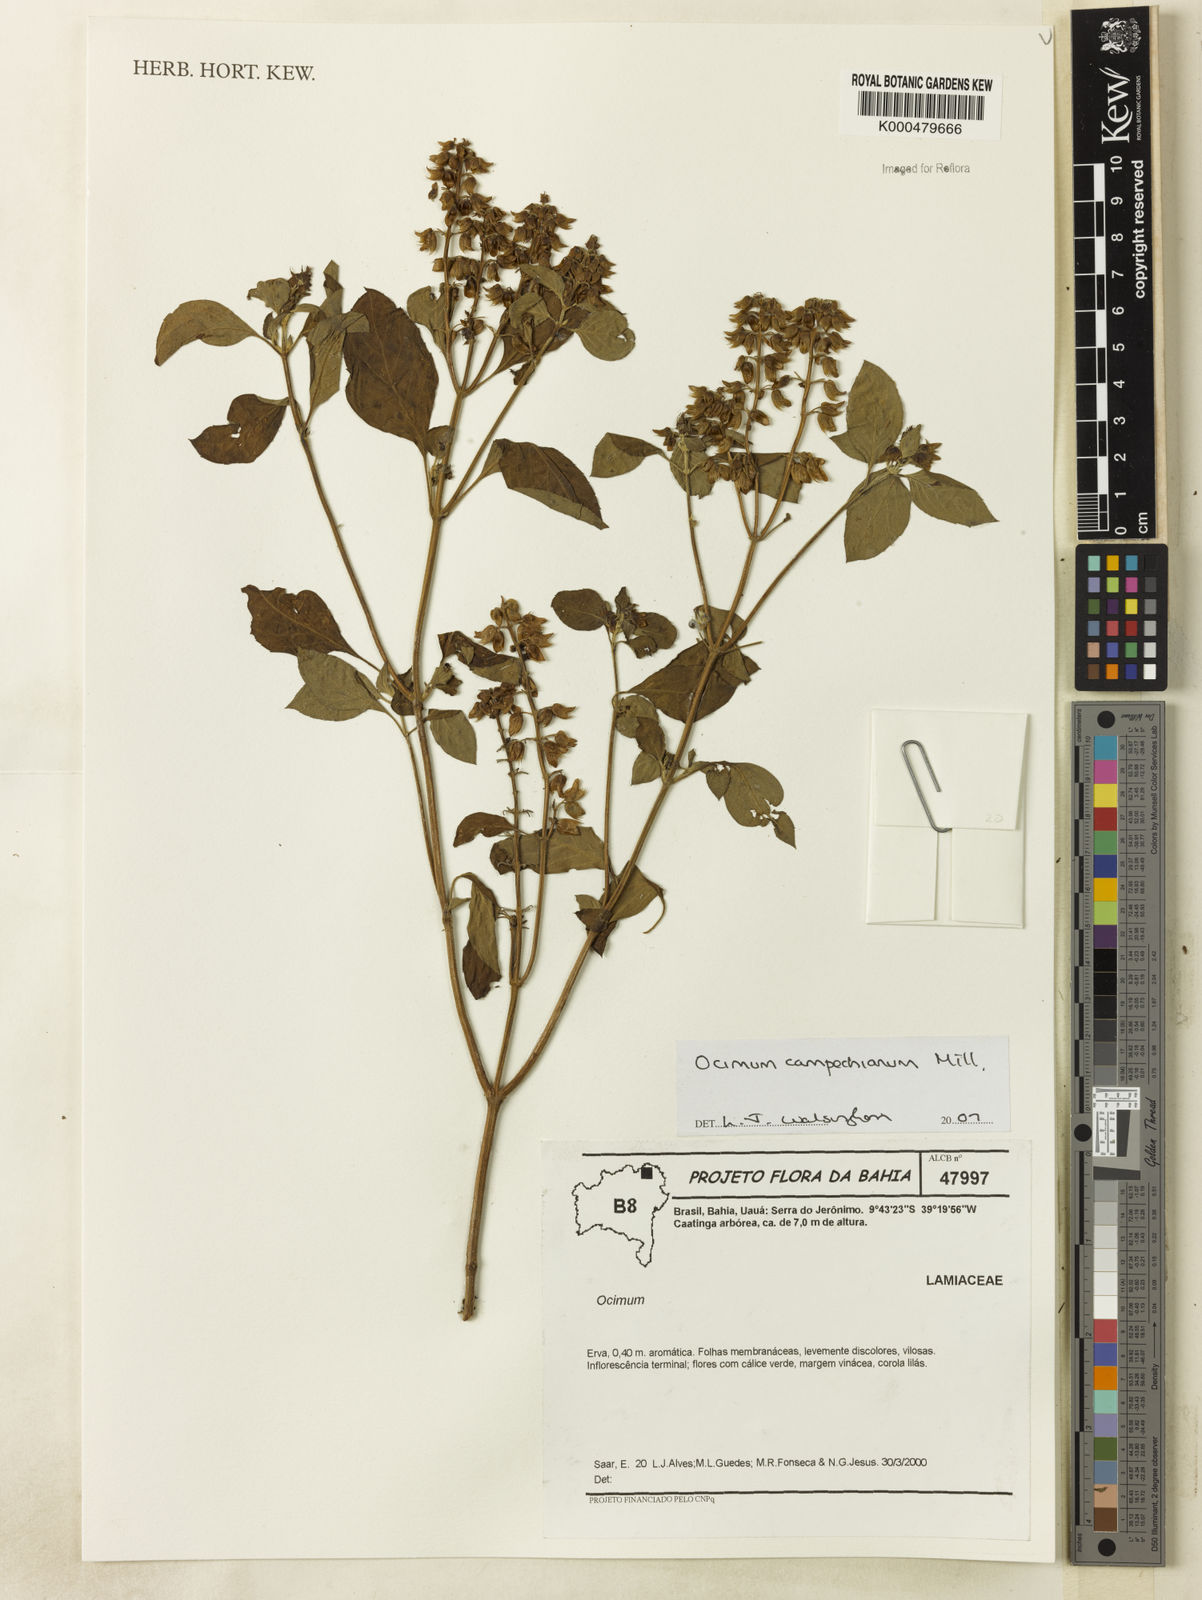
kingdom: Plantae
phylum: Tracheophyta
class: Magnoliopsida
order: Lamiales
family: Lamiaceae
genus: Ocimum
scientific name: Ocimum campechianum
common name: Mosquito basil
